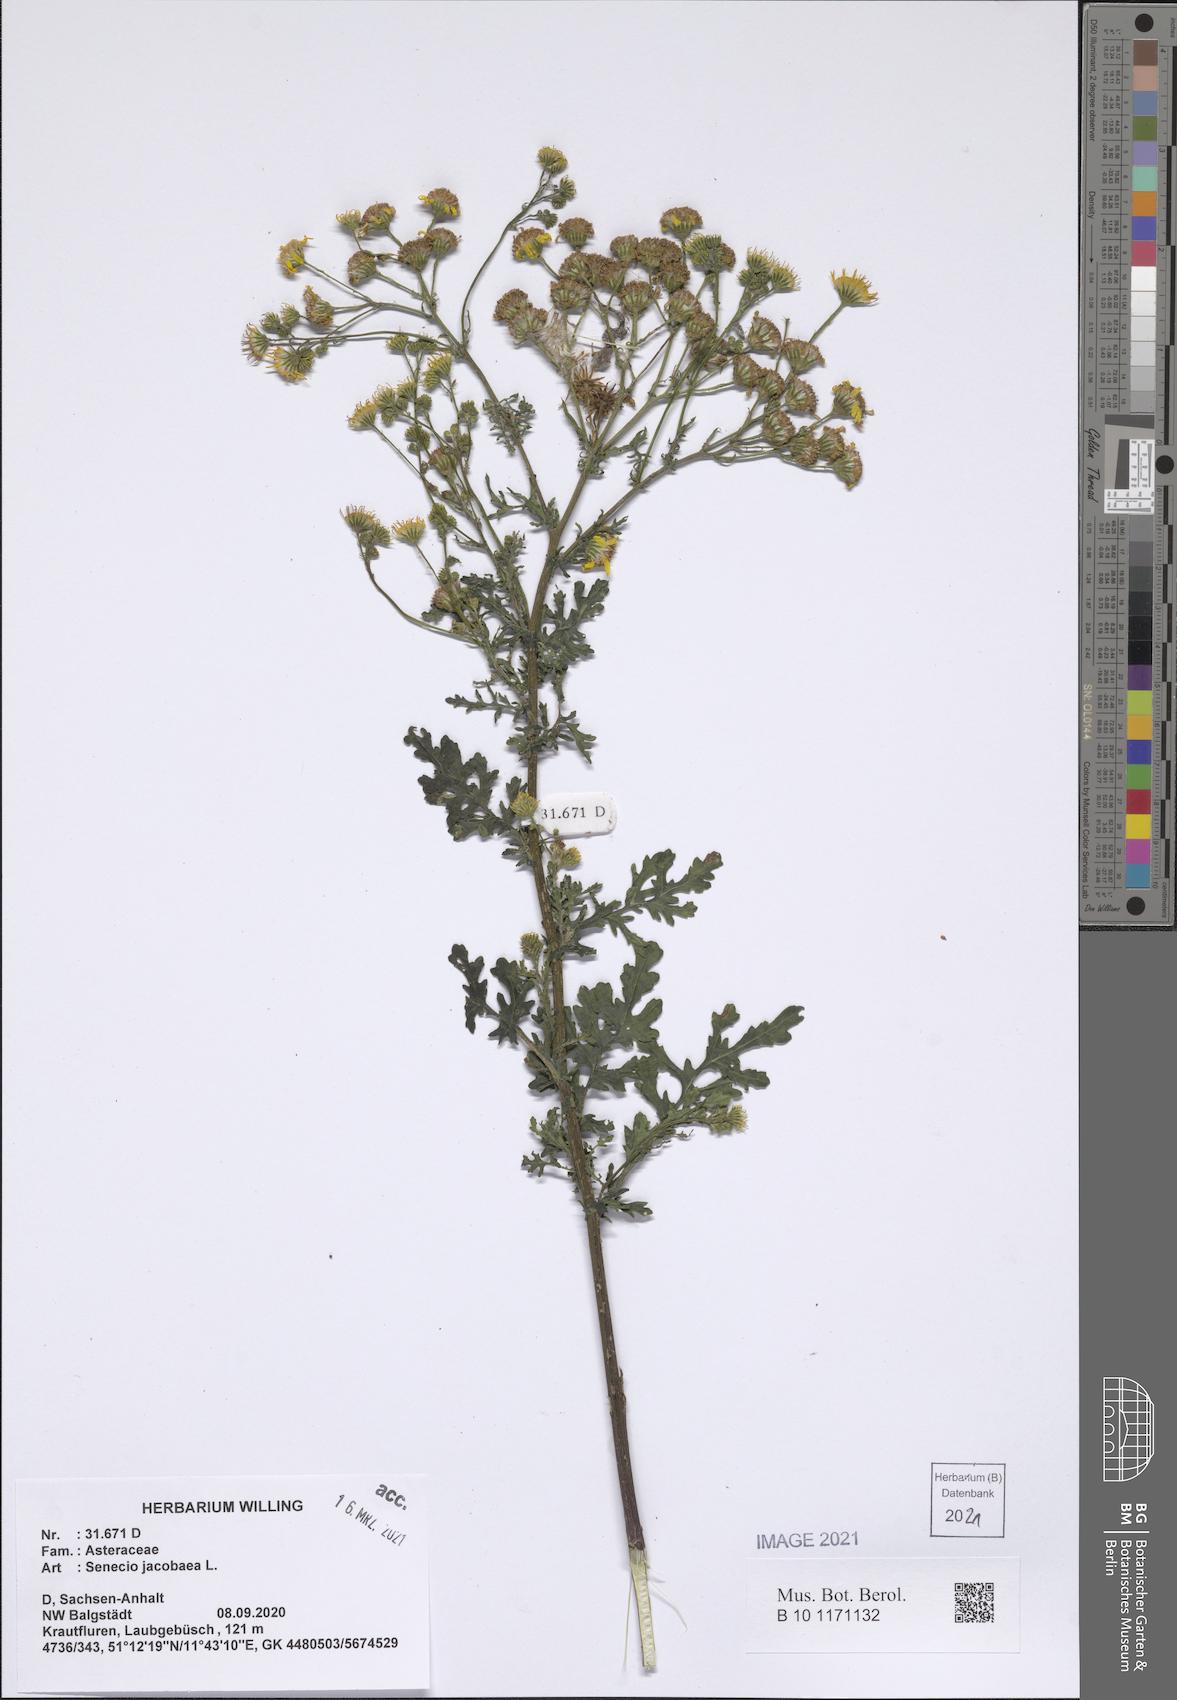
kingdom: Plantae
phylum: Tracheophyta
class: Magnoliopsida
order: Asterales
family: Asteraceae
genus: Jacobaea
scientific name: Jacobaea vulgaris
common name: Stinking willie
